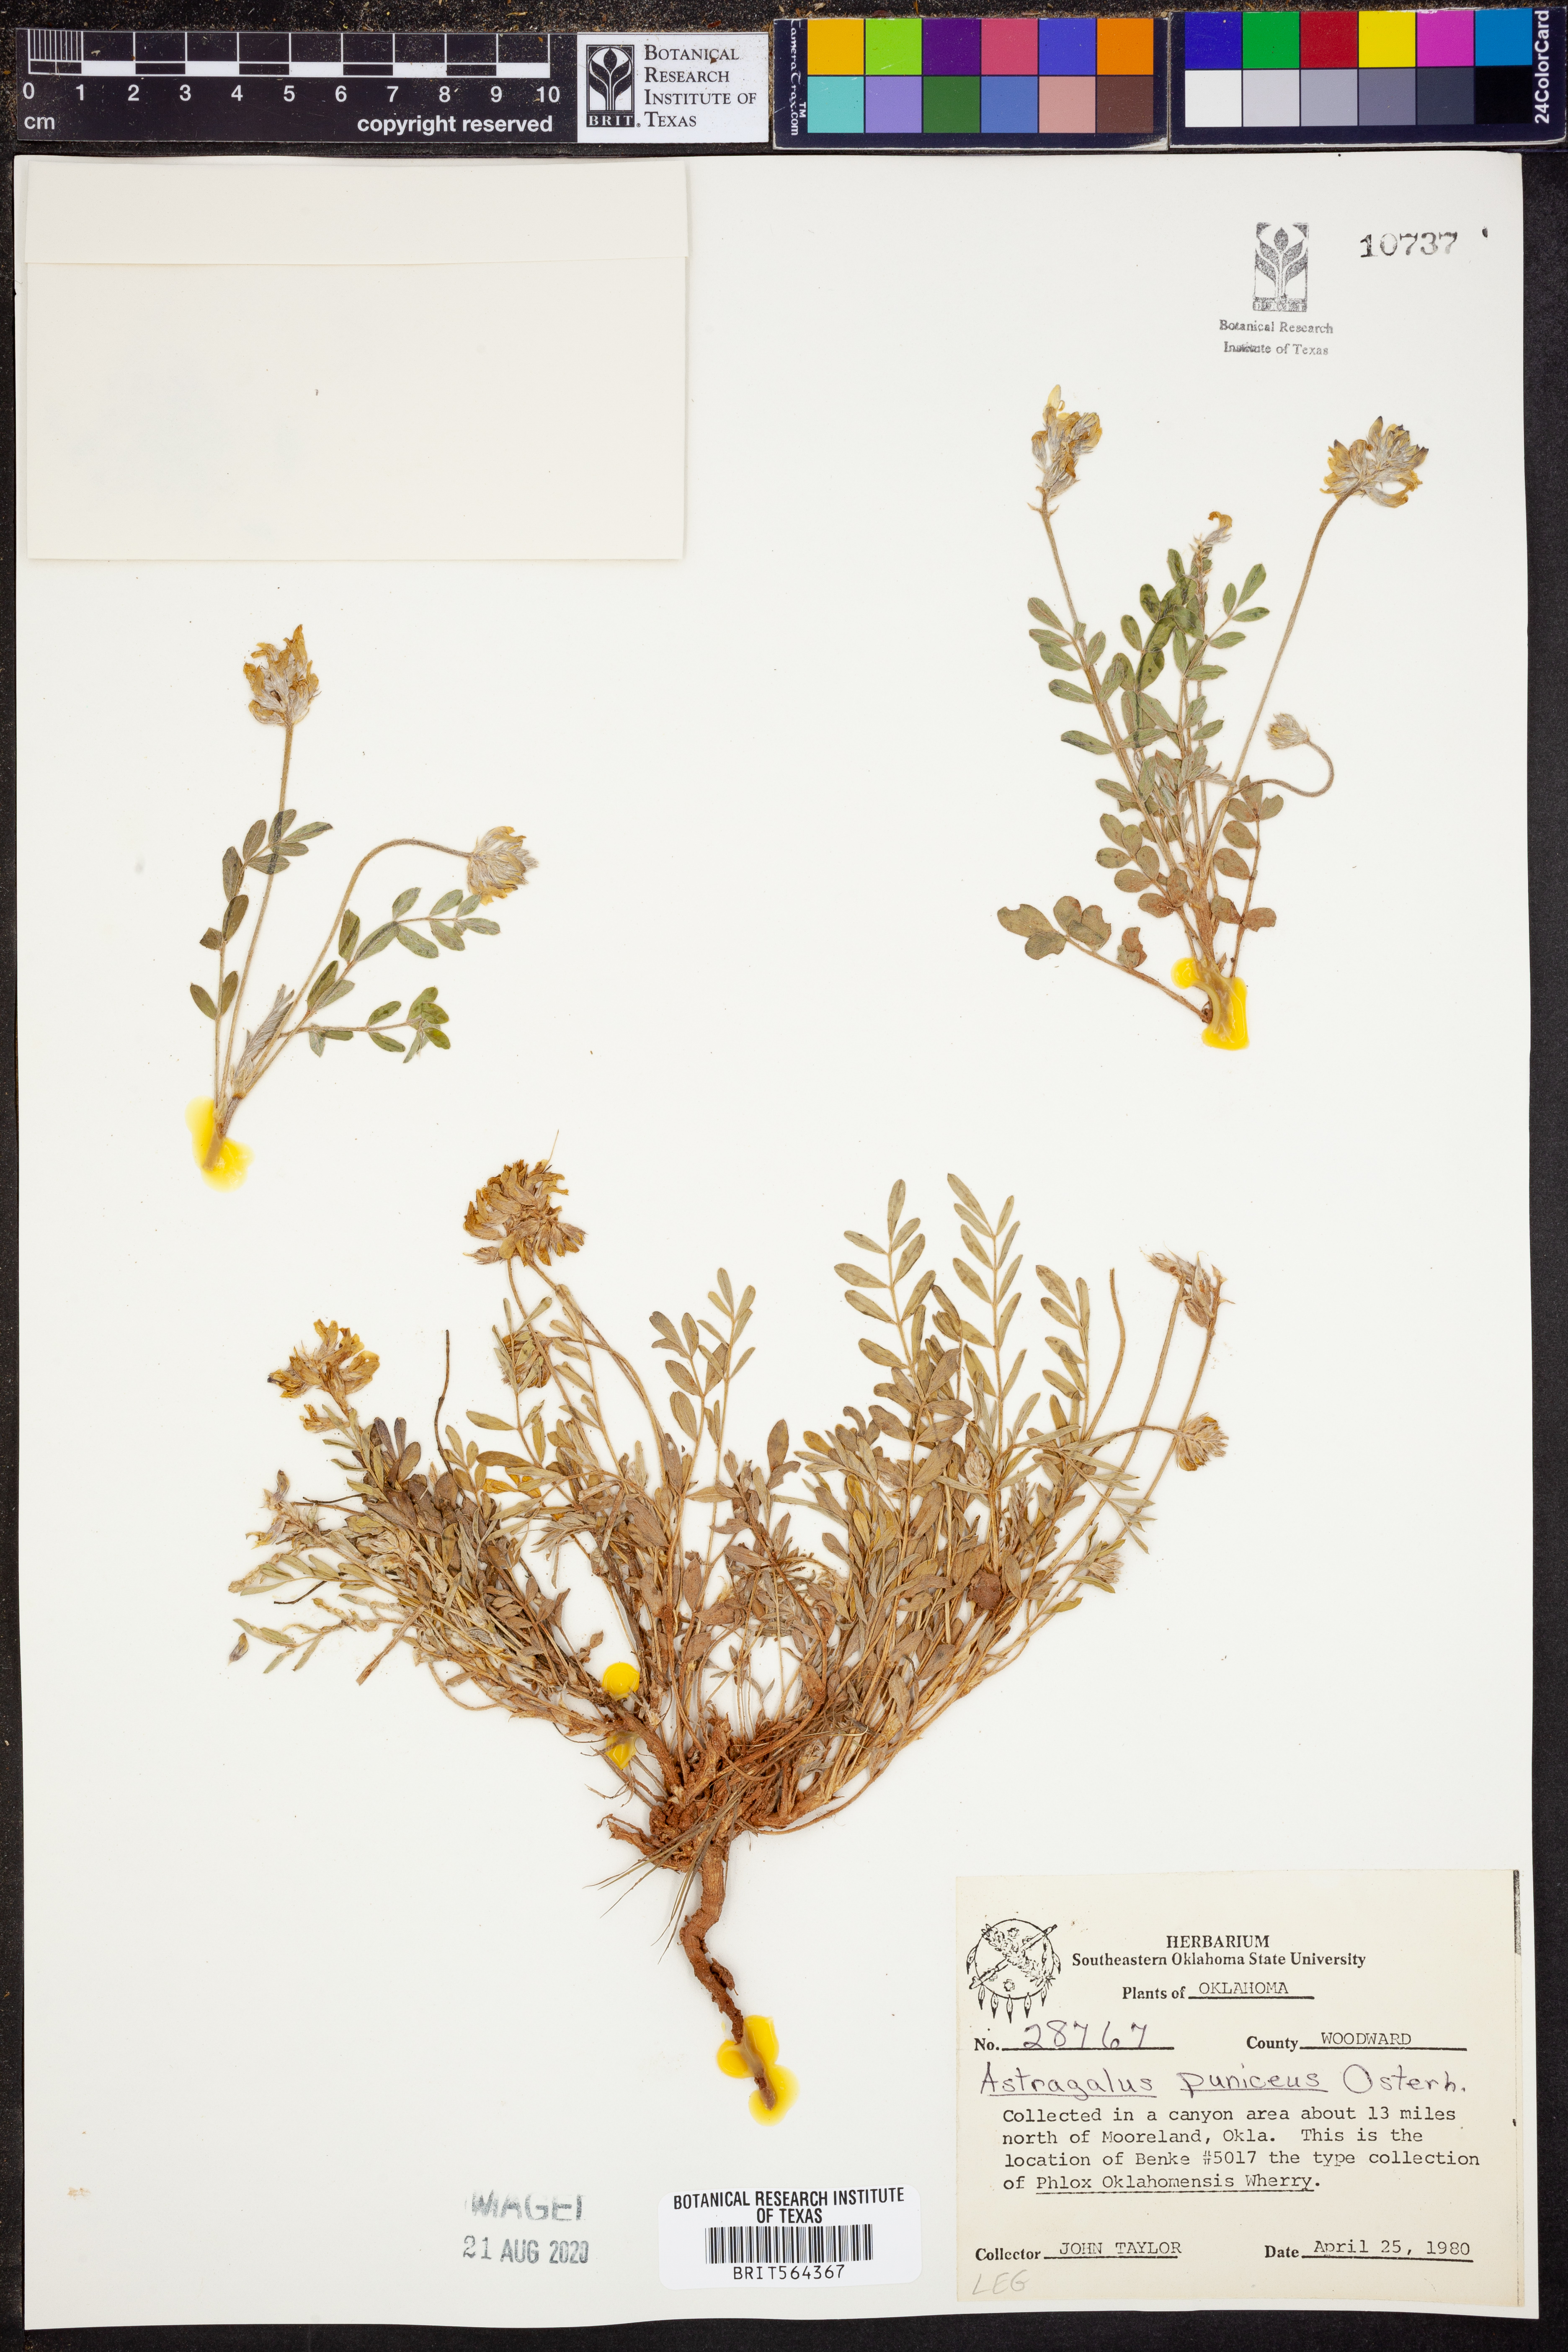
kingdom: Plantae
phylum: Tracheophyta
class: Magnoliopsida
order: Fabales
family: Fabaceae
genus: Astragalus
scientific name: Astragalus puniceus
